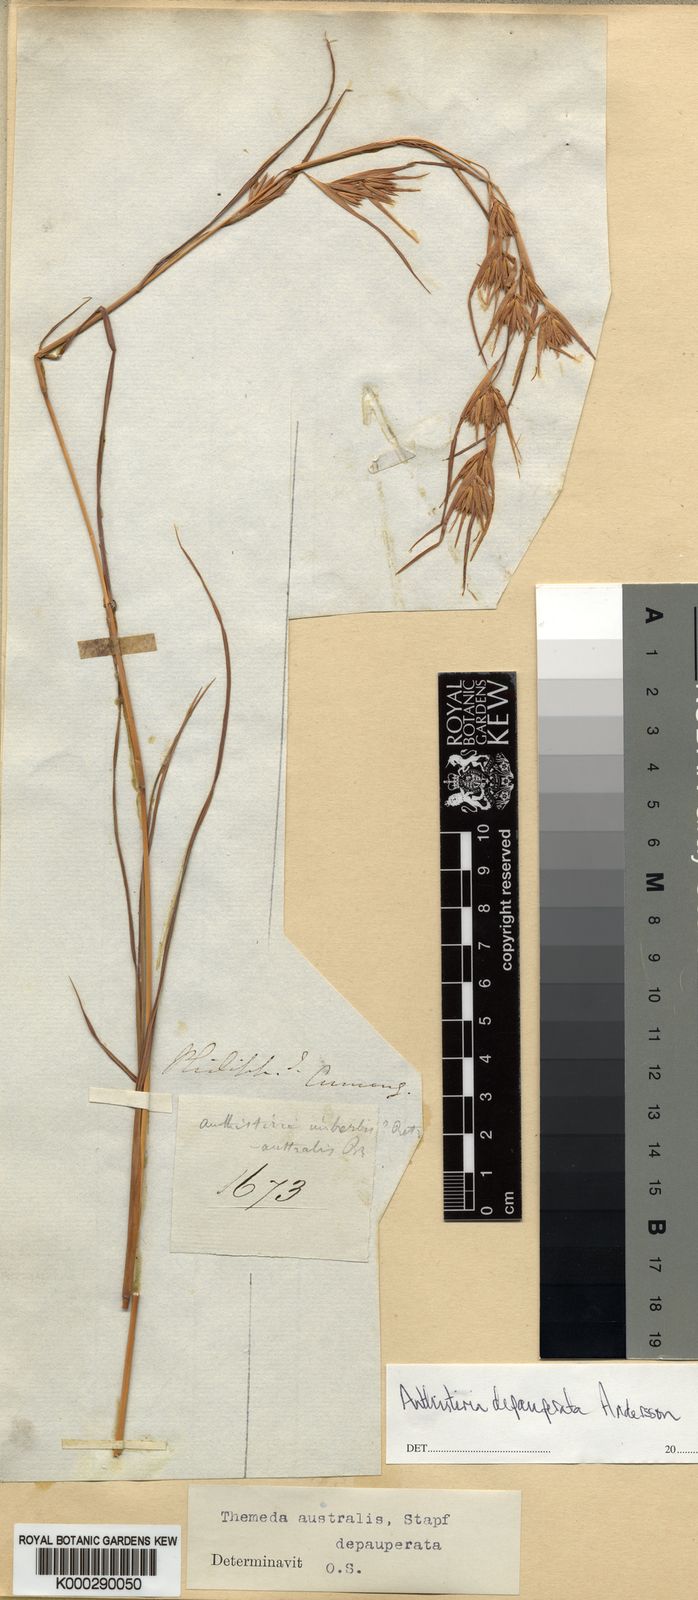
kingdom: Plantae
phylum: Tracheophyta
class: Liliopsida
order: Poales
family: Poaceae
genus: Themeda
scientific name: Themeda triandra
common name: Kangaroo grass
